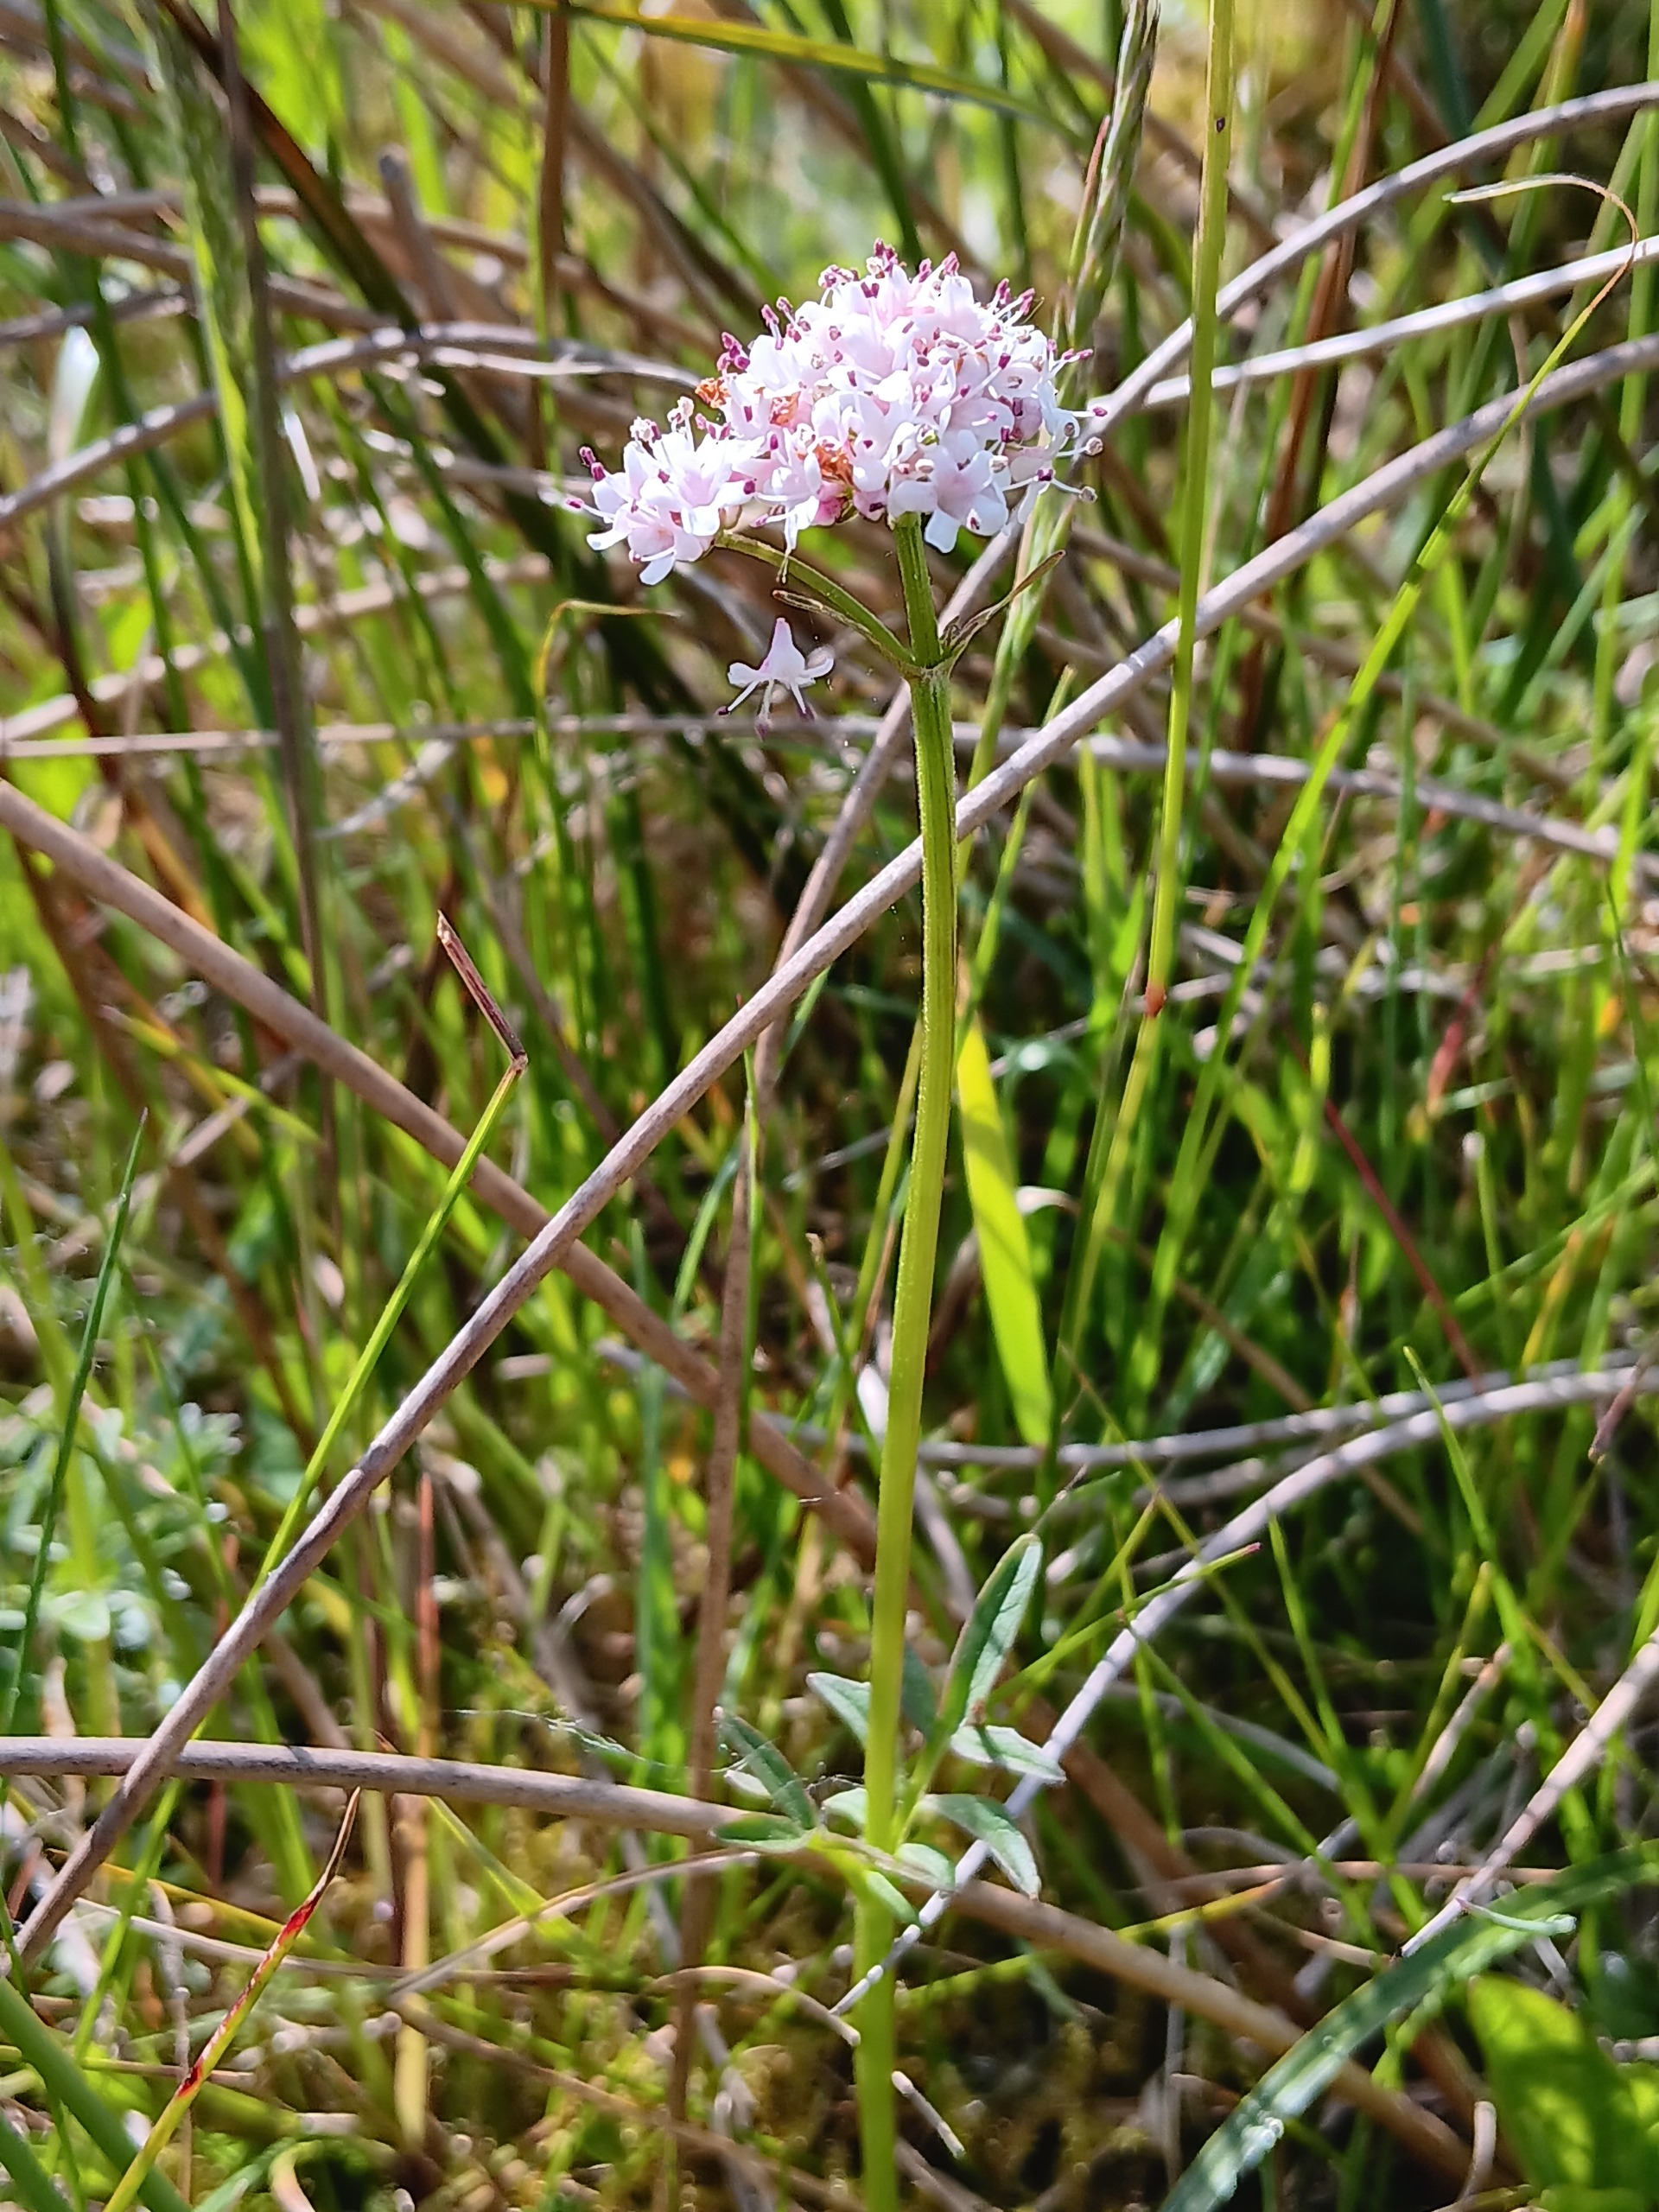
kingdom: Plantae
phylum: Tracheophyta
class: Magnoliopsida
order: Dipsacales
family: Caprifoliaceae
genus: Valeriana
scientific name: Valeriana dioica
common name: Tvebo baldrian
